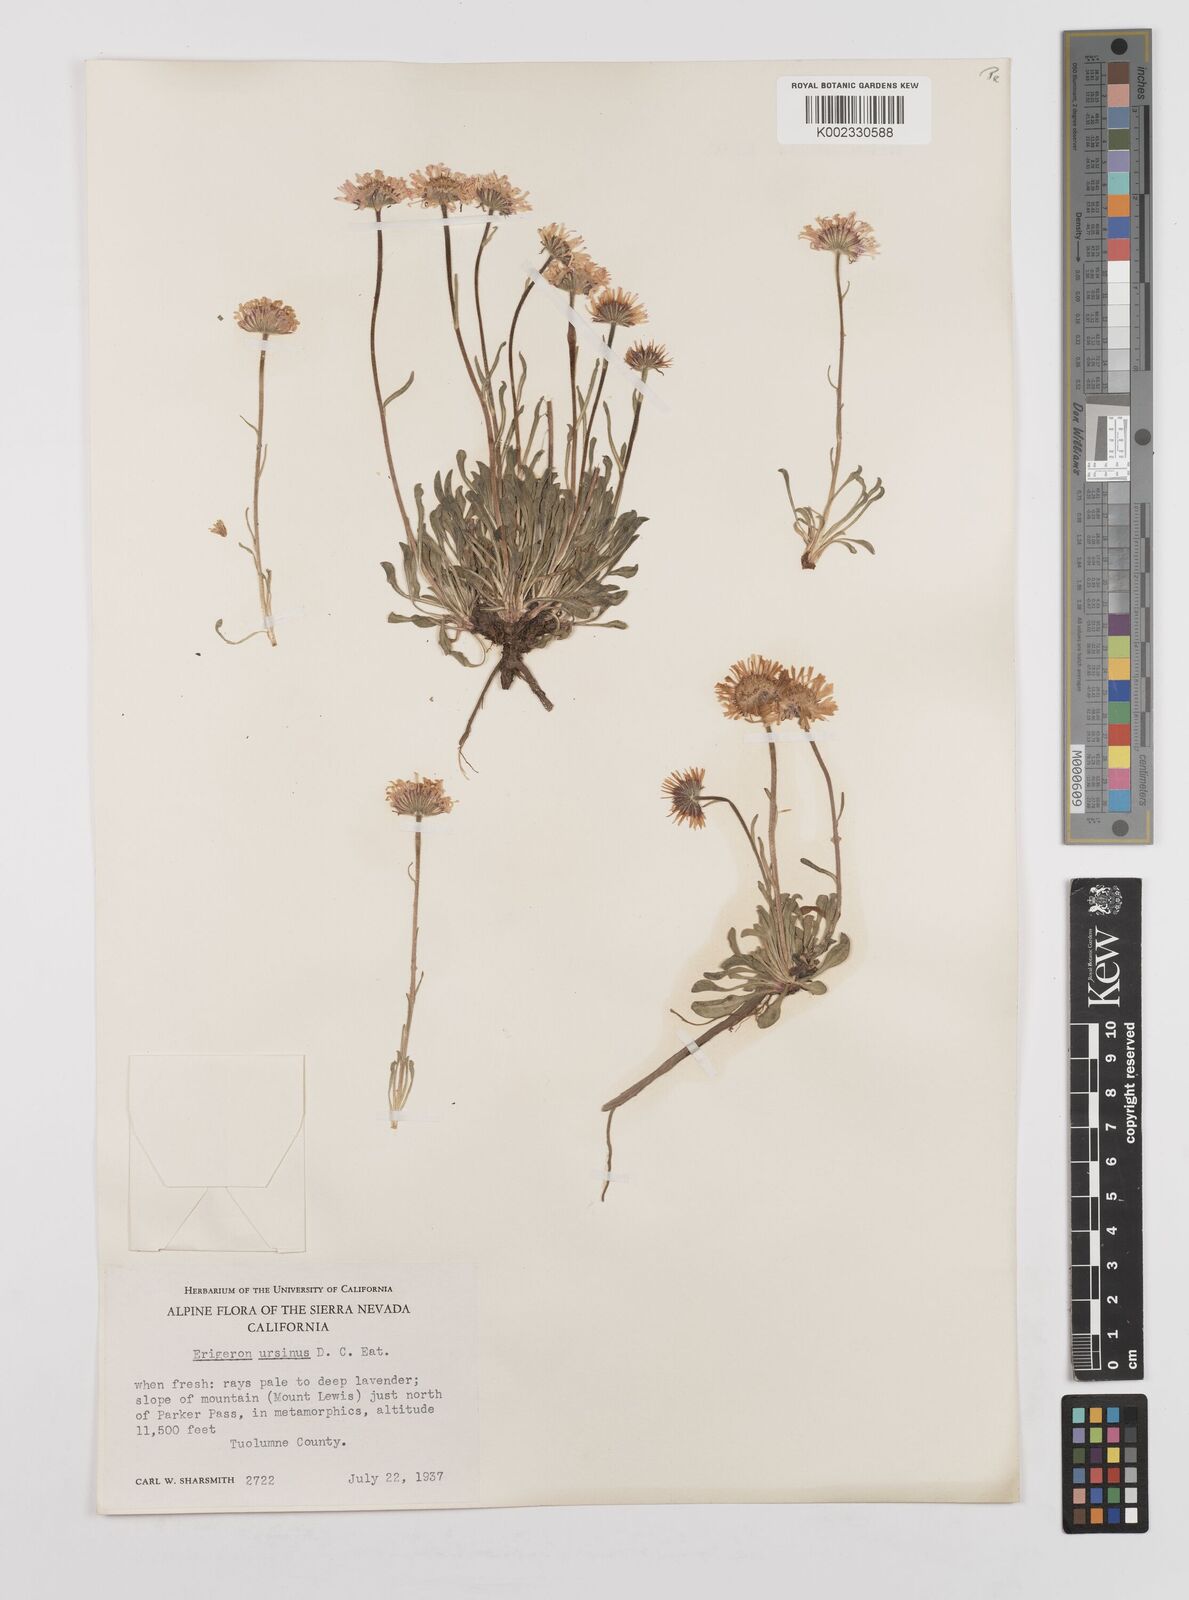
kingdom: Plantae
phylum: Tracheophyta
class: Magnoliopsida
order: Asterales
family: Asteraceae
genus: Erigeron
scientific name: Erigeron ursinus
